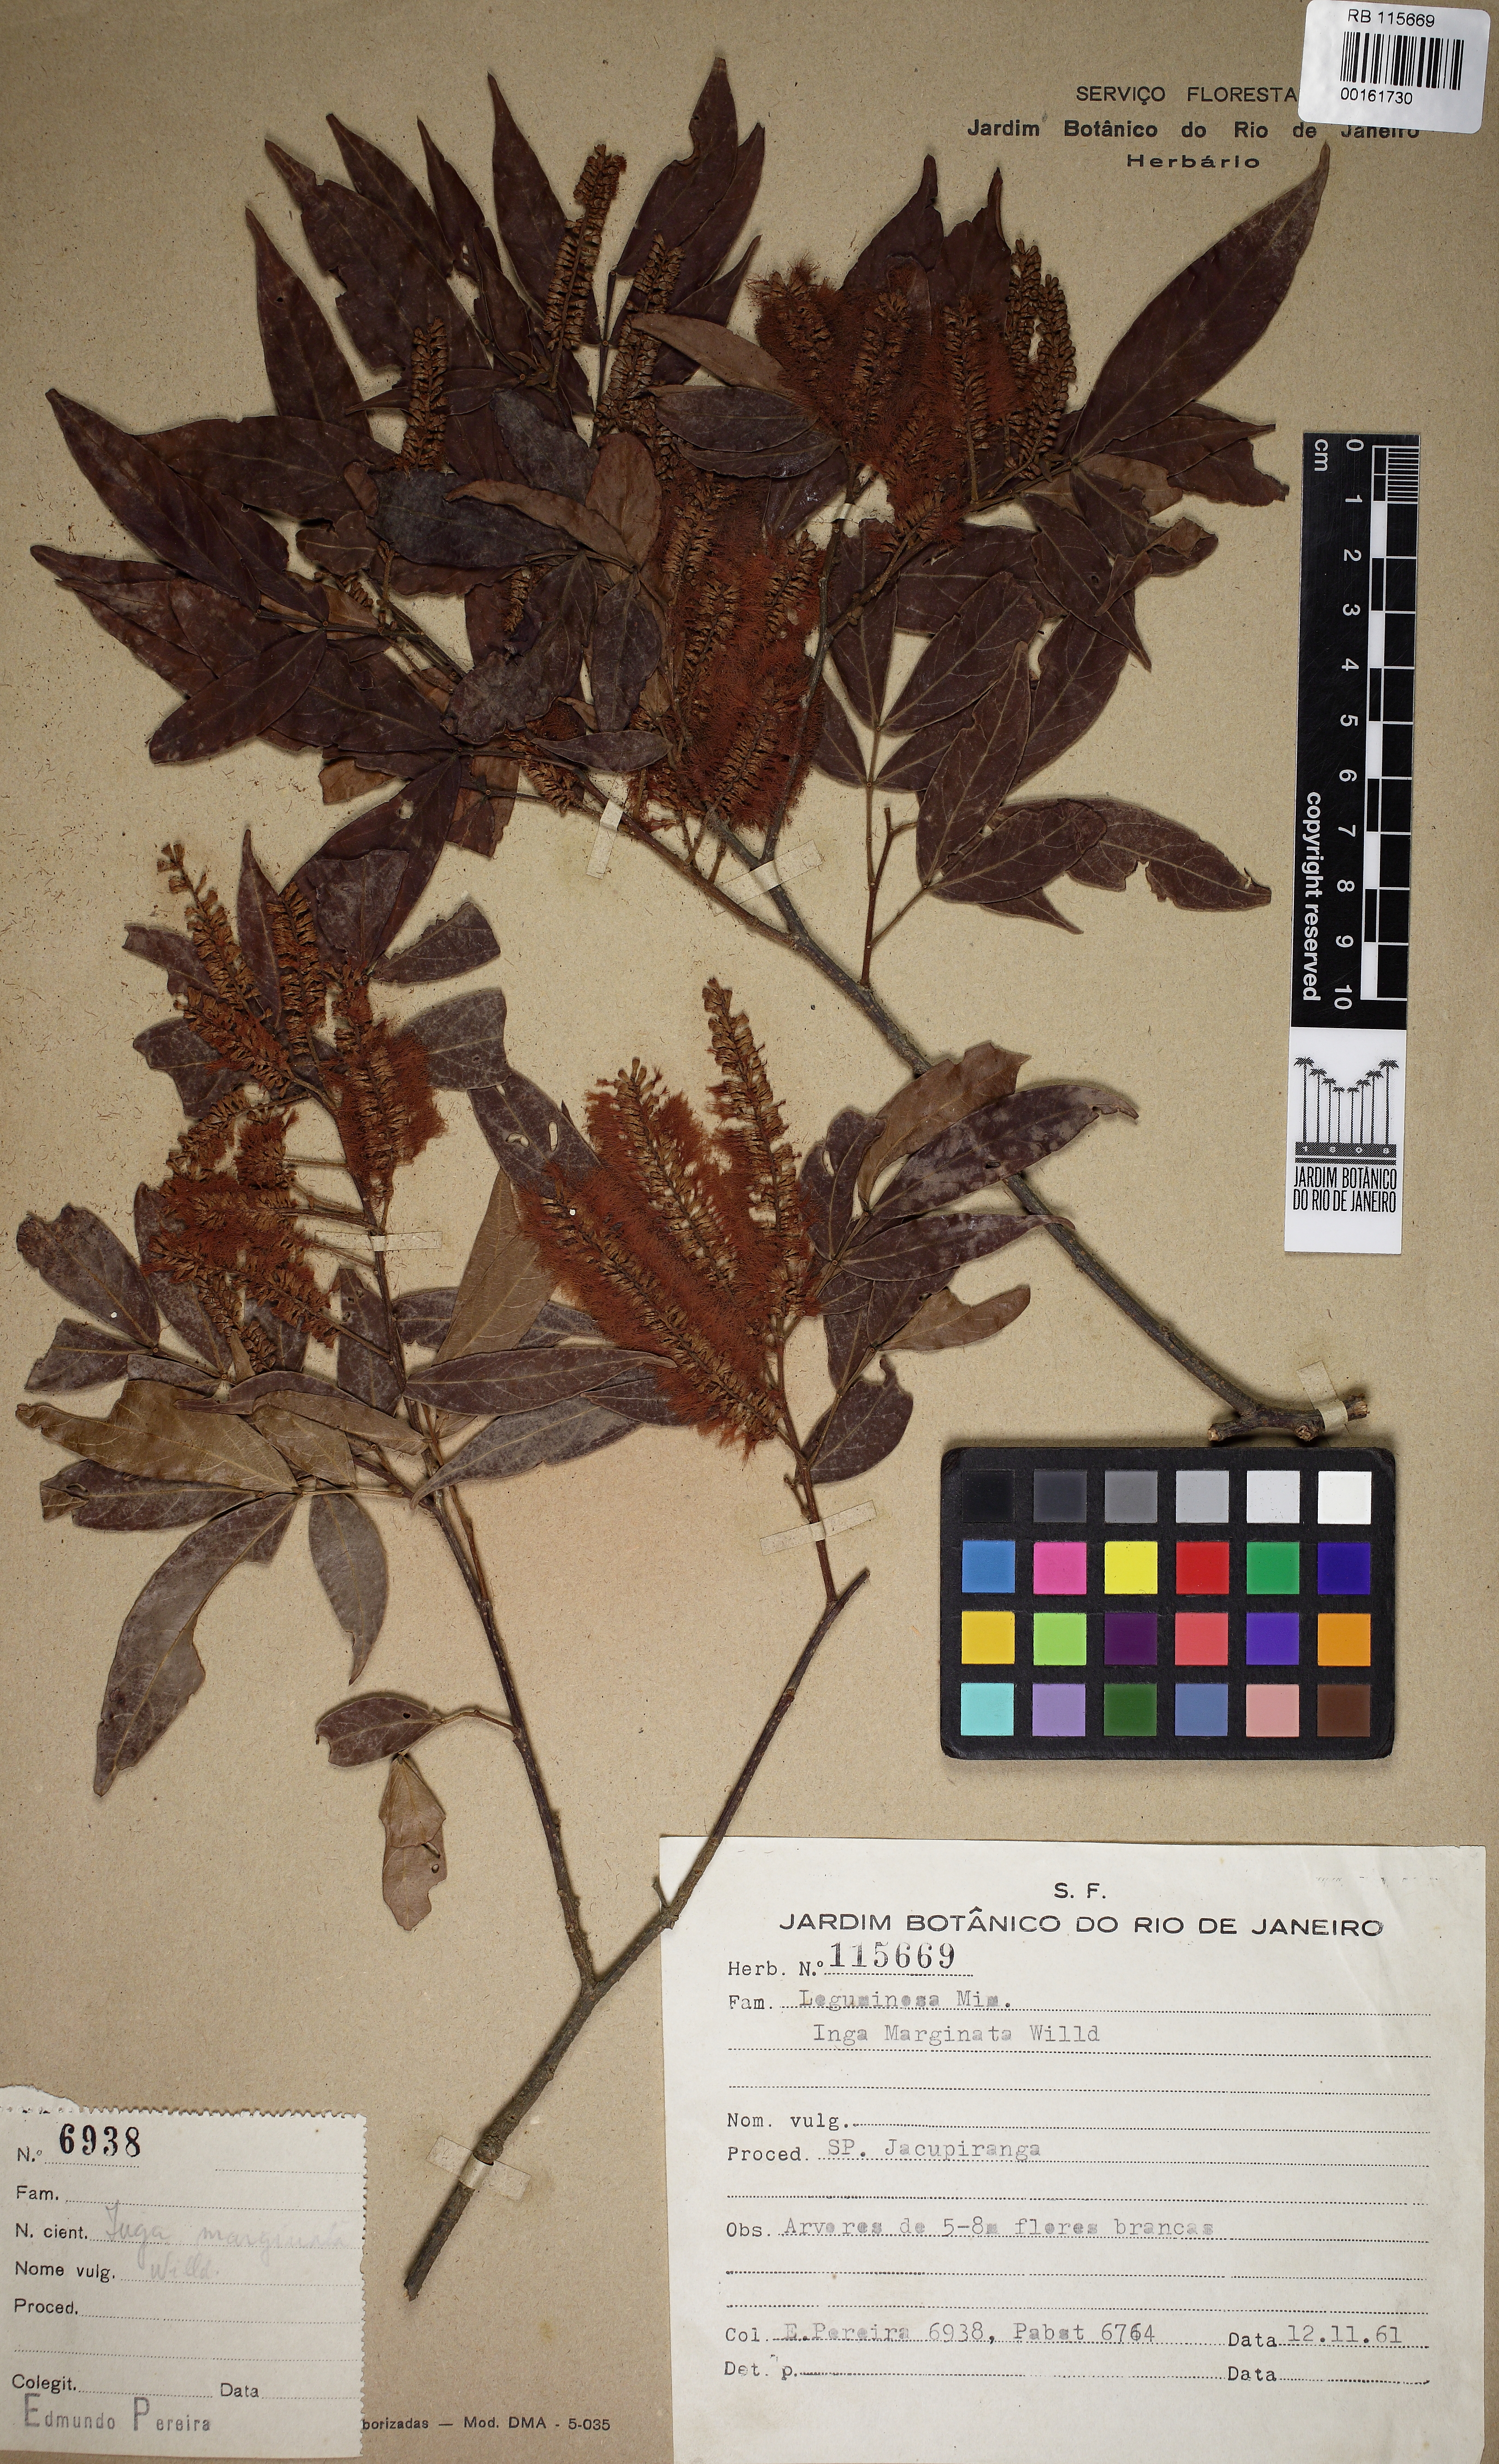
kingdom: Plantae
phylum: Tracheophyta
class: Magnoliopsida
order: Fabales
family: Fabaceae
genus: Inga
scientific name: Inga marginata
